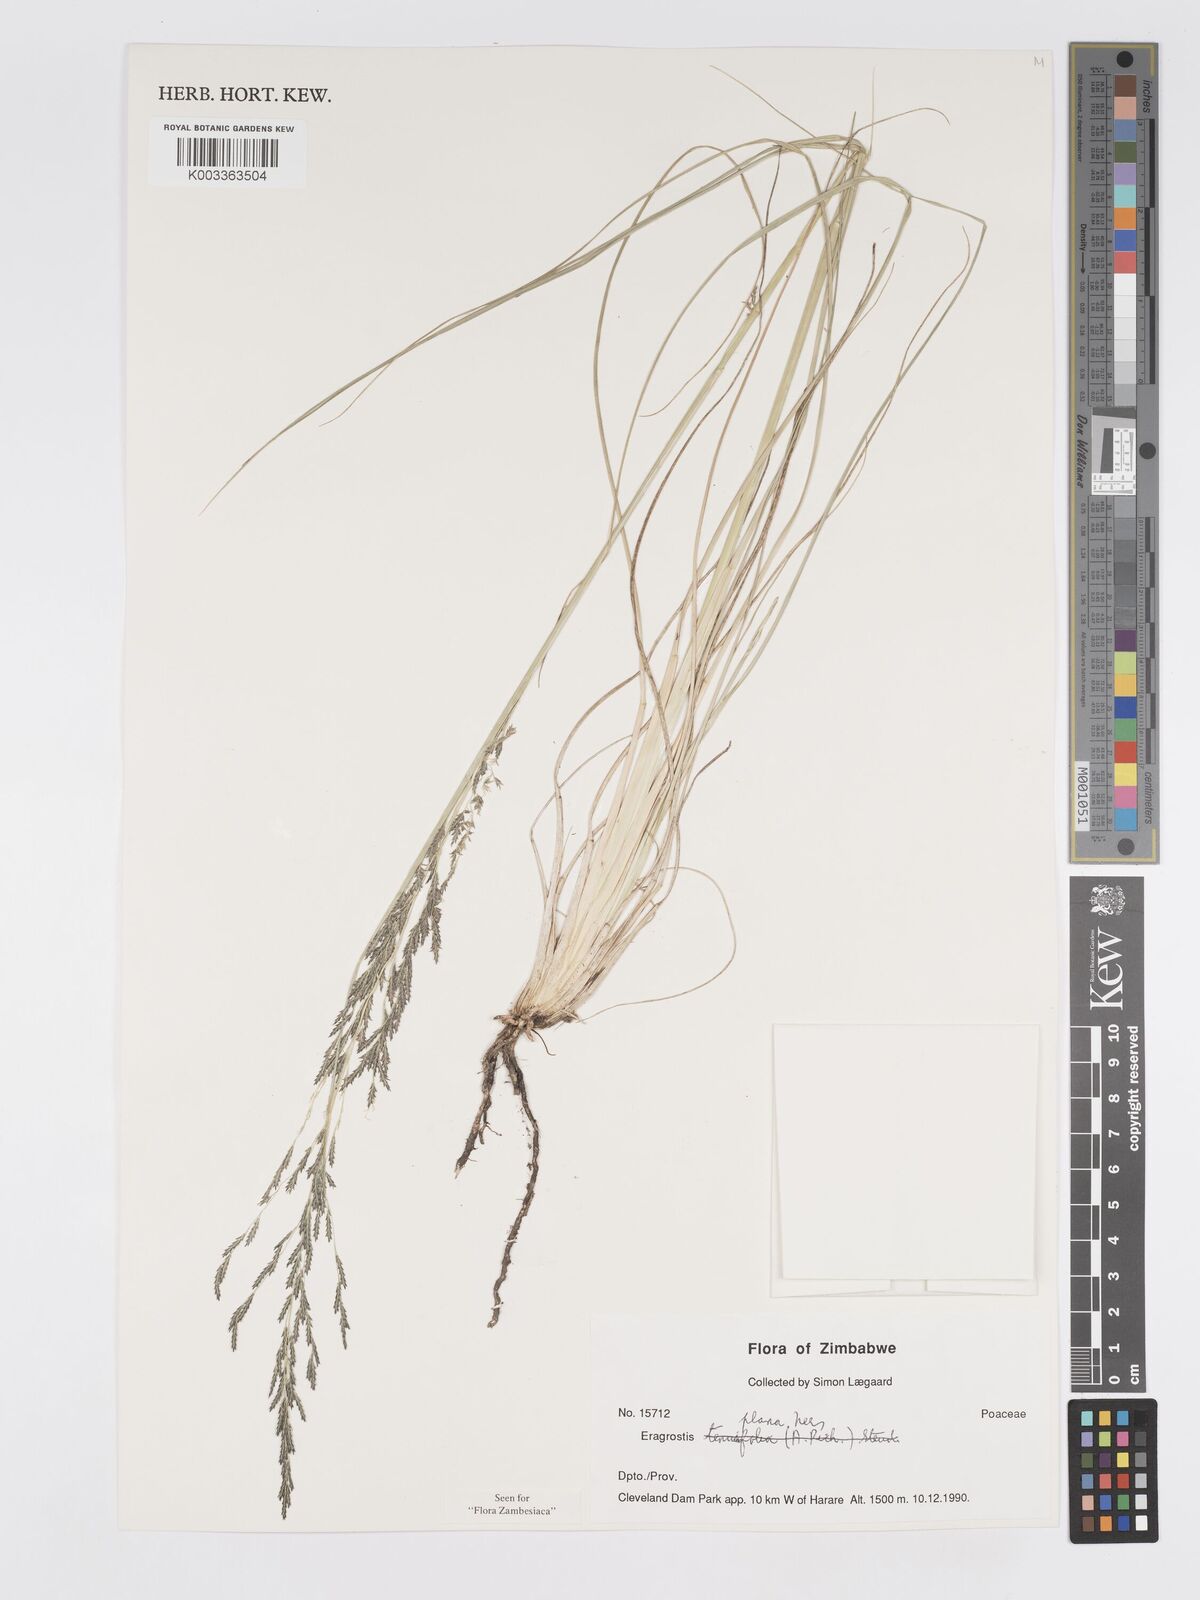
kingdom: Plantae
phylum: Tracheophyta
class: Liliopsida
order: Poales
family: Poaceae
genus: Eragrostis
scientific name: Eragrostis plana
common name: South african lovegrass
